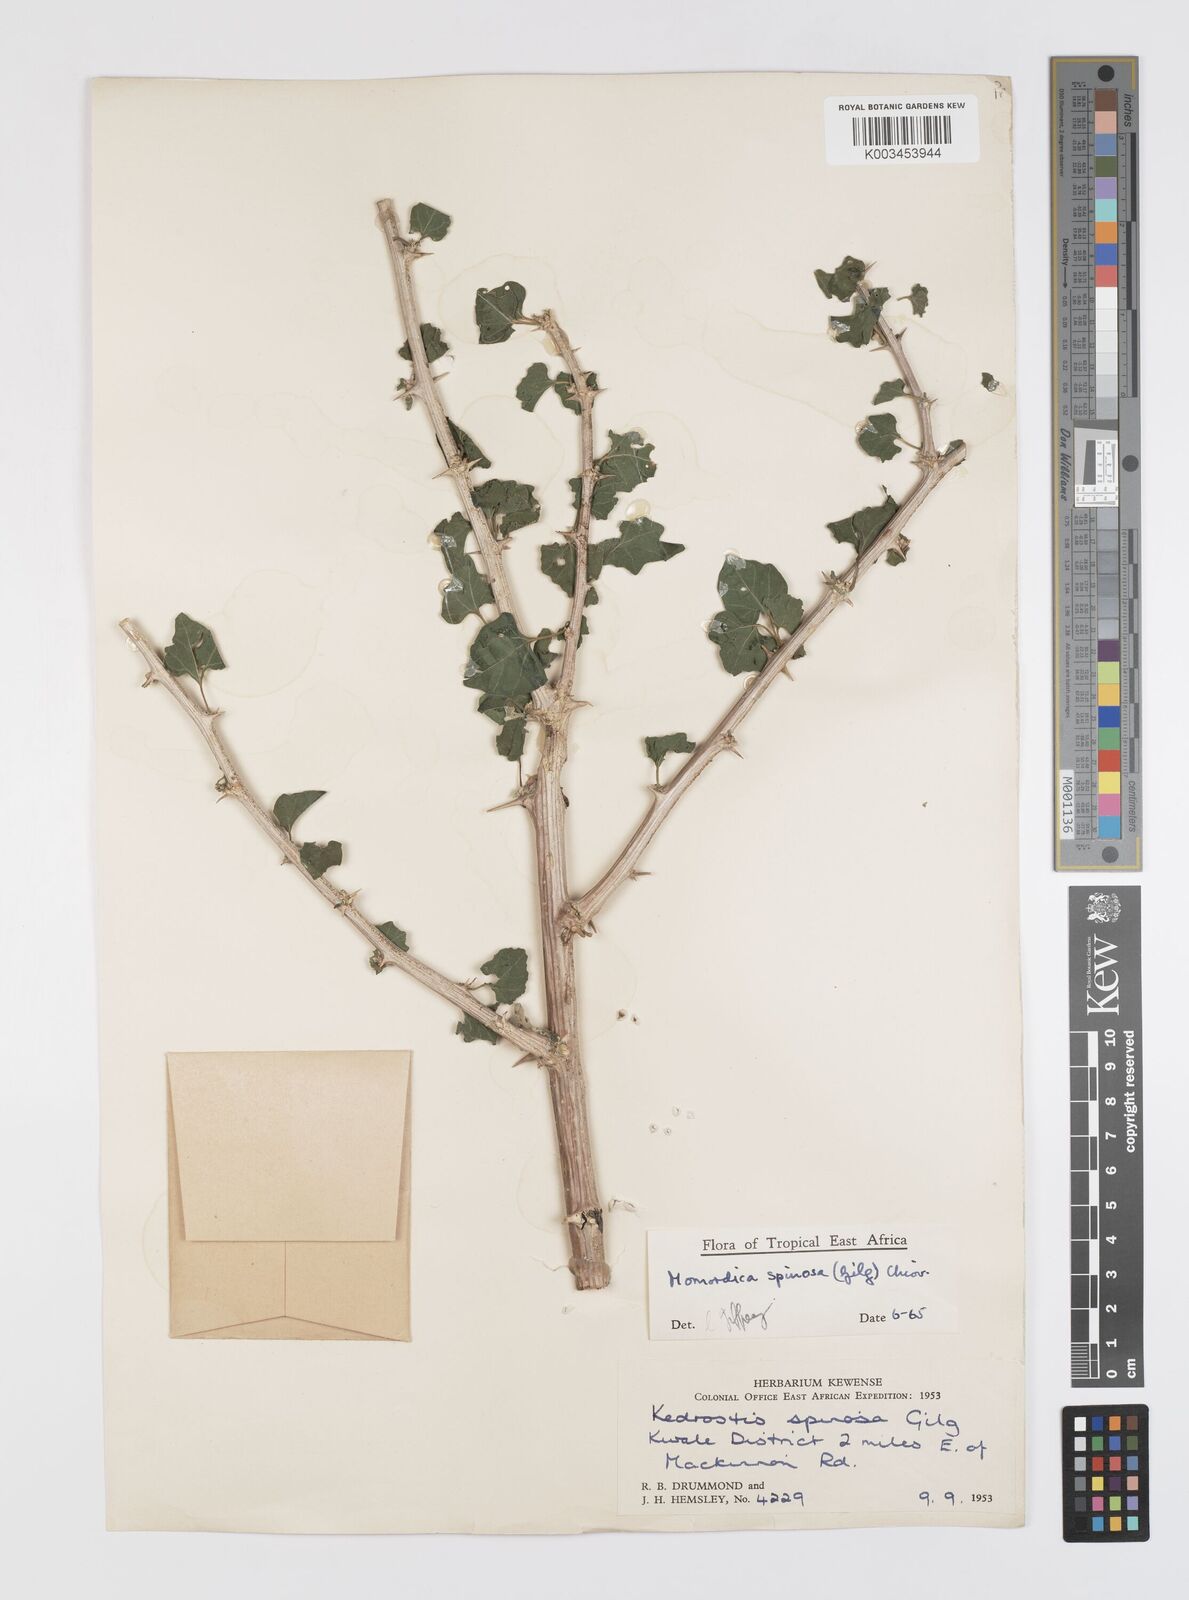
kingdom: Plantae
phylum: Tracheophyta
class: Magnoliopsida
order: Cucurbitales
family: Cucurbitaceae
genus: Momordica
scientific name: Momordica spinosa
